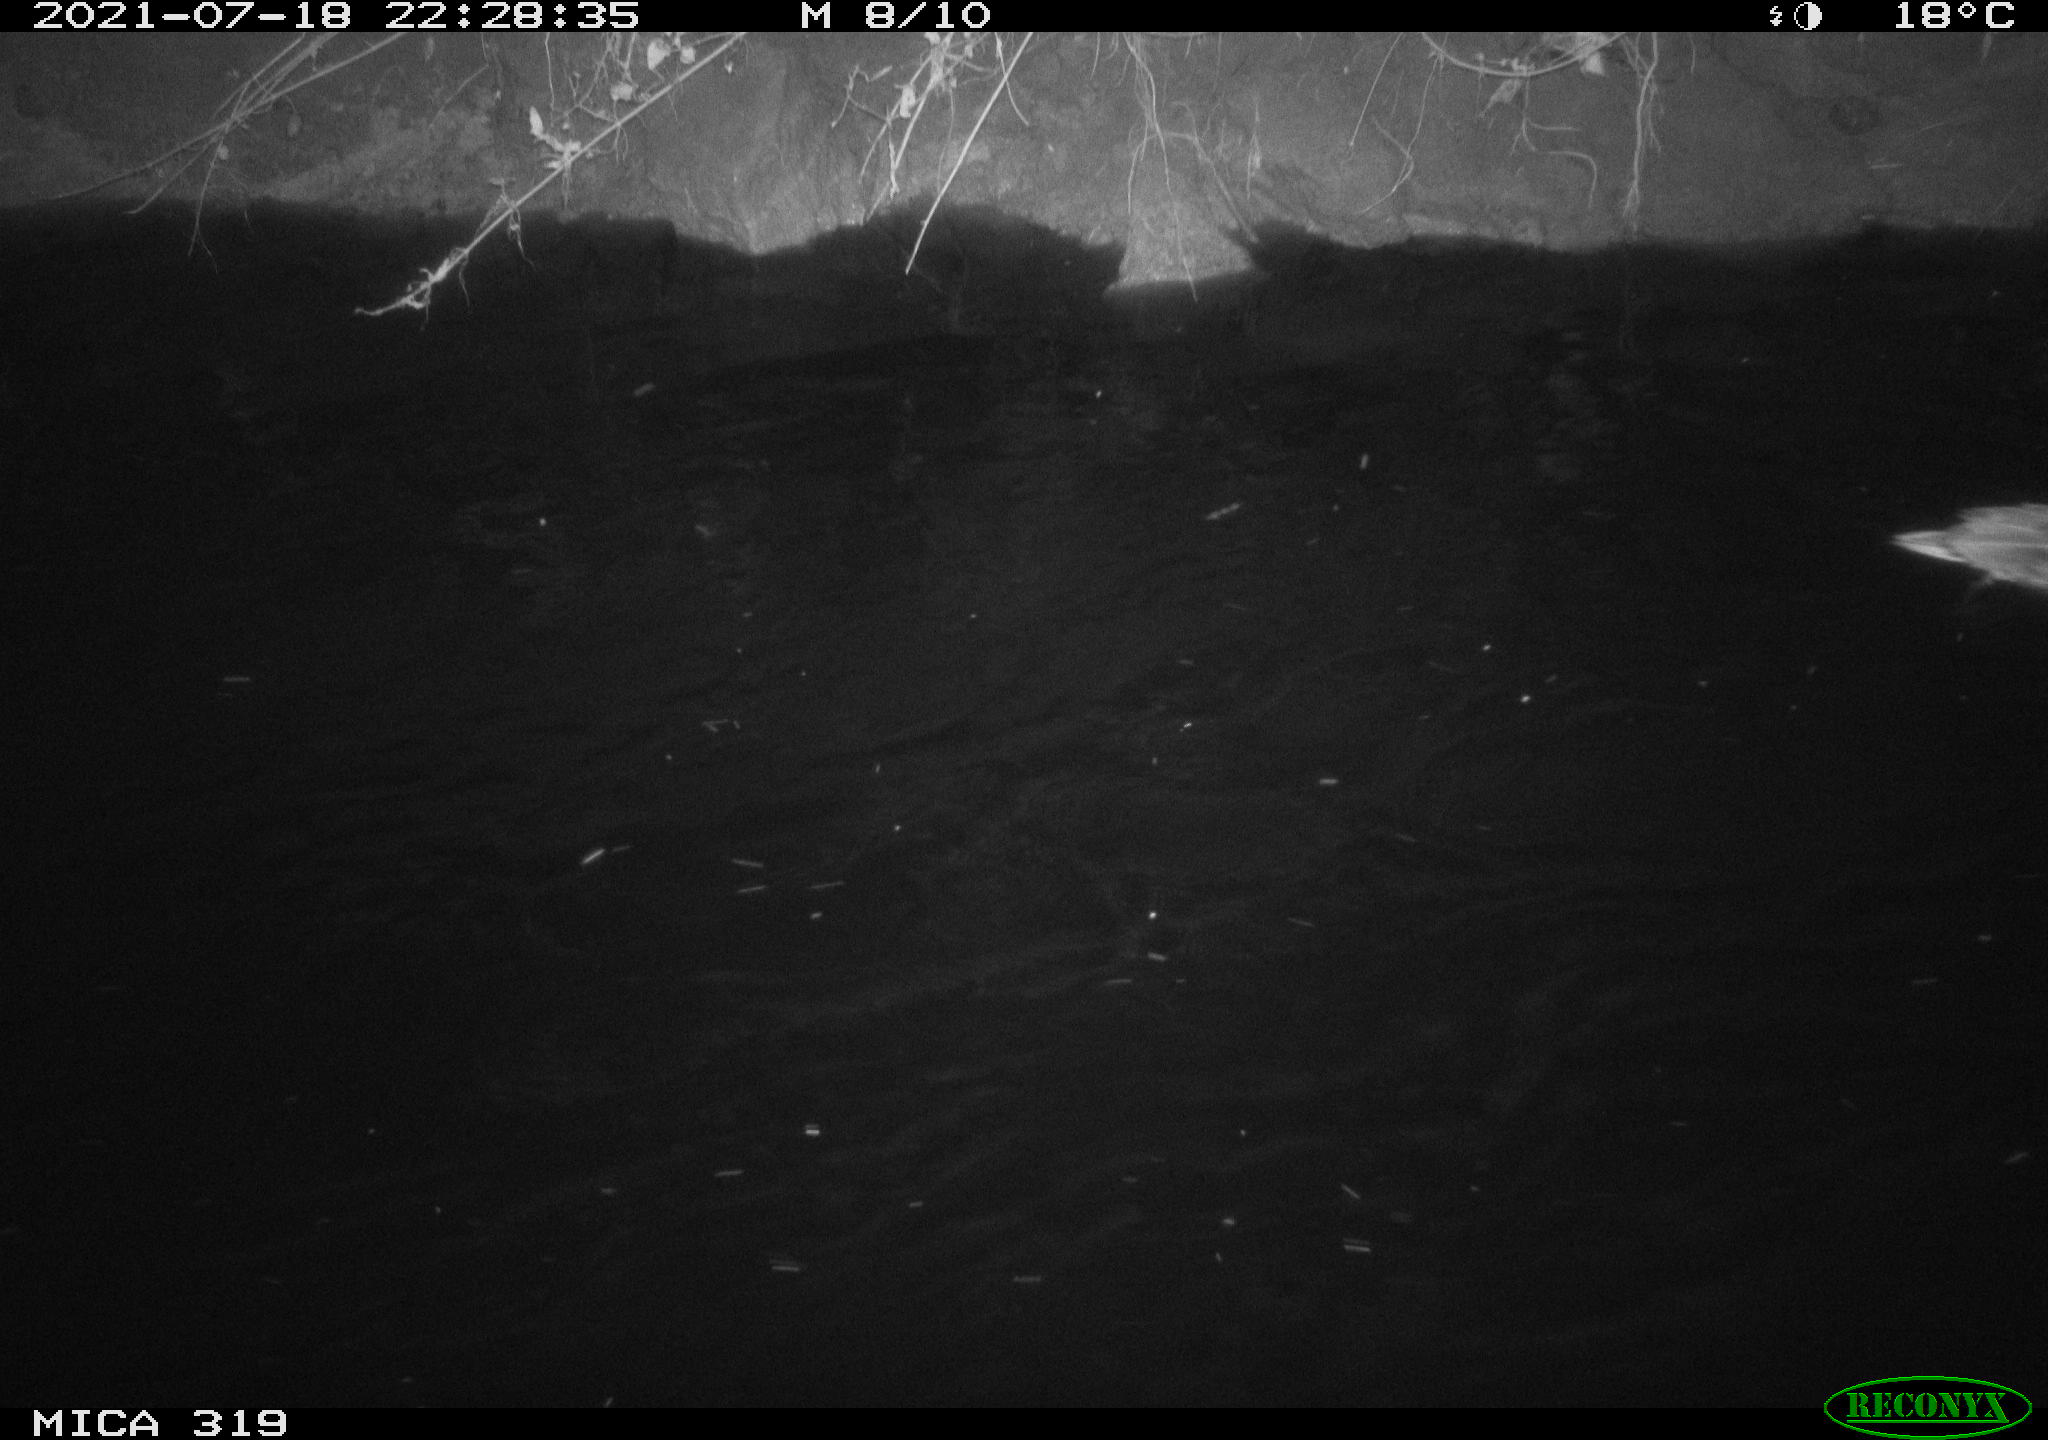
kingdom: Animalia
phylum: Chordata
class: Aves
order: Anseriformes
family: Anatidae
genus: Anas
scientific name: Anas platyrhynchos
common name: Mallard
